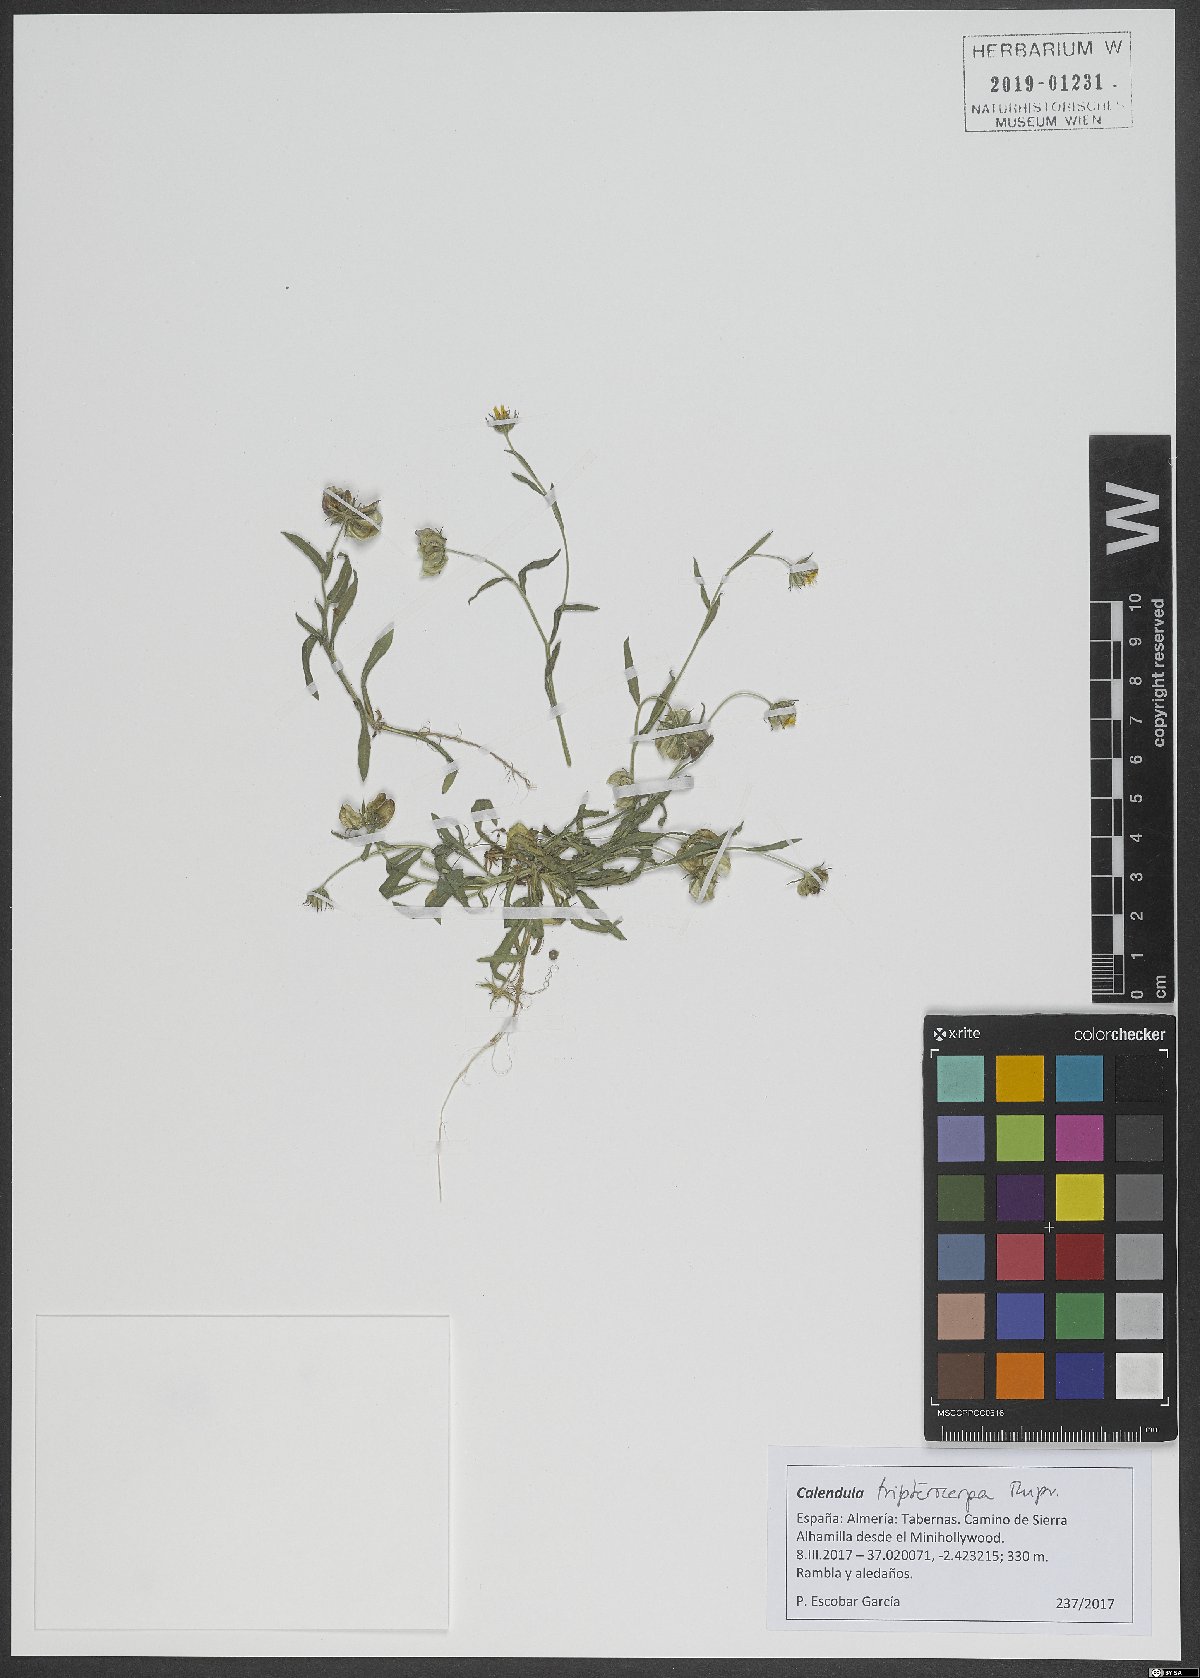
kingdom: Plantae
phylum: Tracheophyta
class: Magnoliopsida
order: Asterales
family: Asteraceae
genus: Calendula
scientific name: Calendula tripterocarpa
